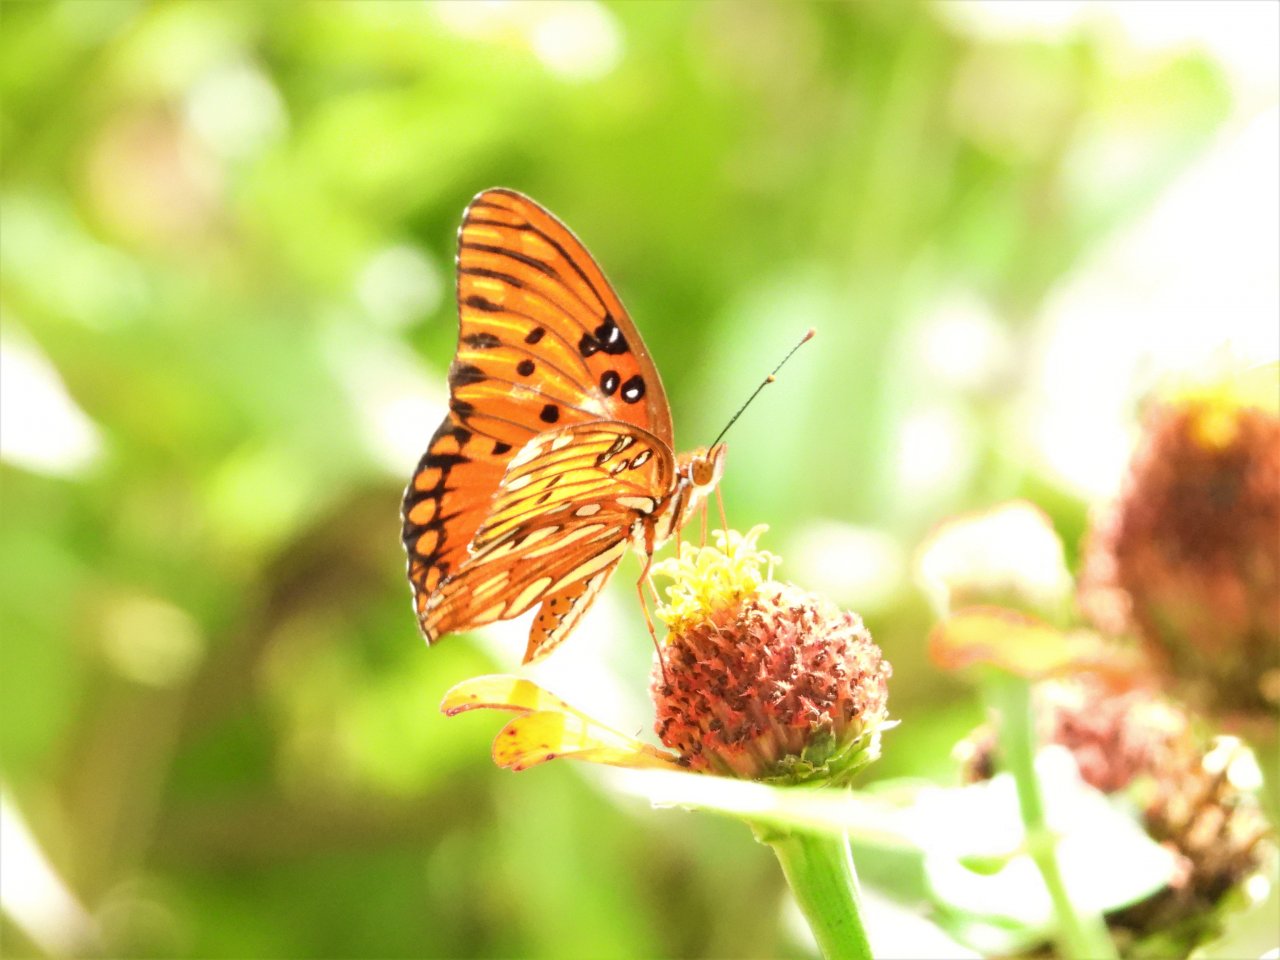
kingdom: Animalia
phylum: Arthropoda
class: Insecta
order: Lepidoptera
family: Nymphalidae
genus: Dione
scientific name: Dione vanillae
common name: Gulf Fritillary
